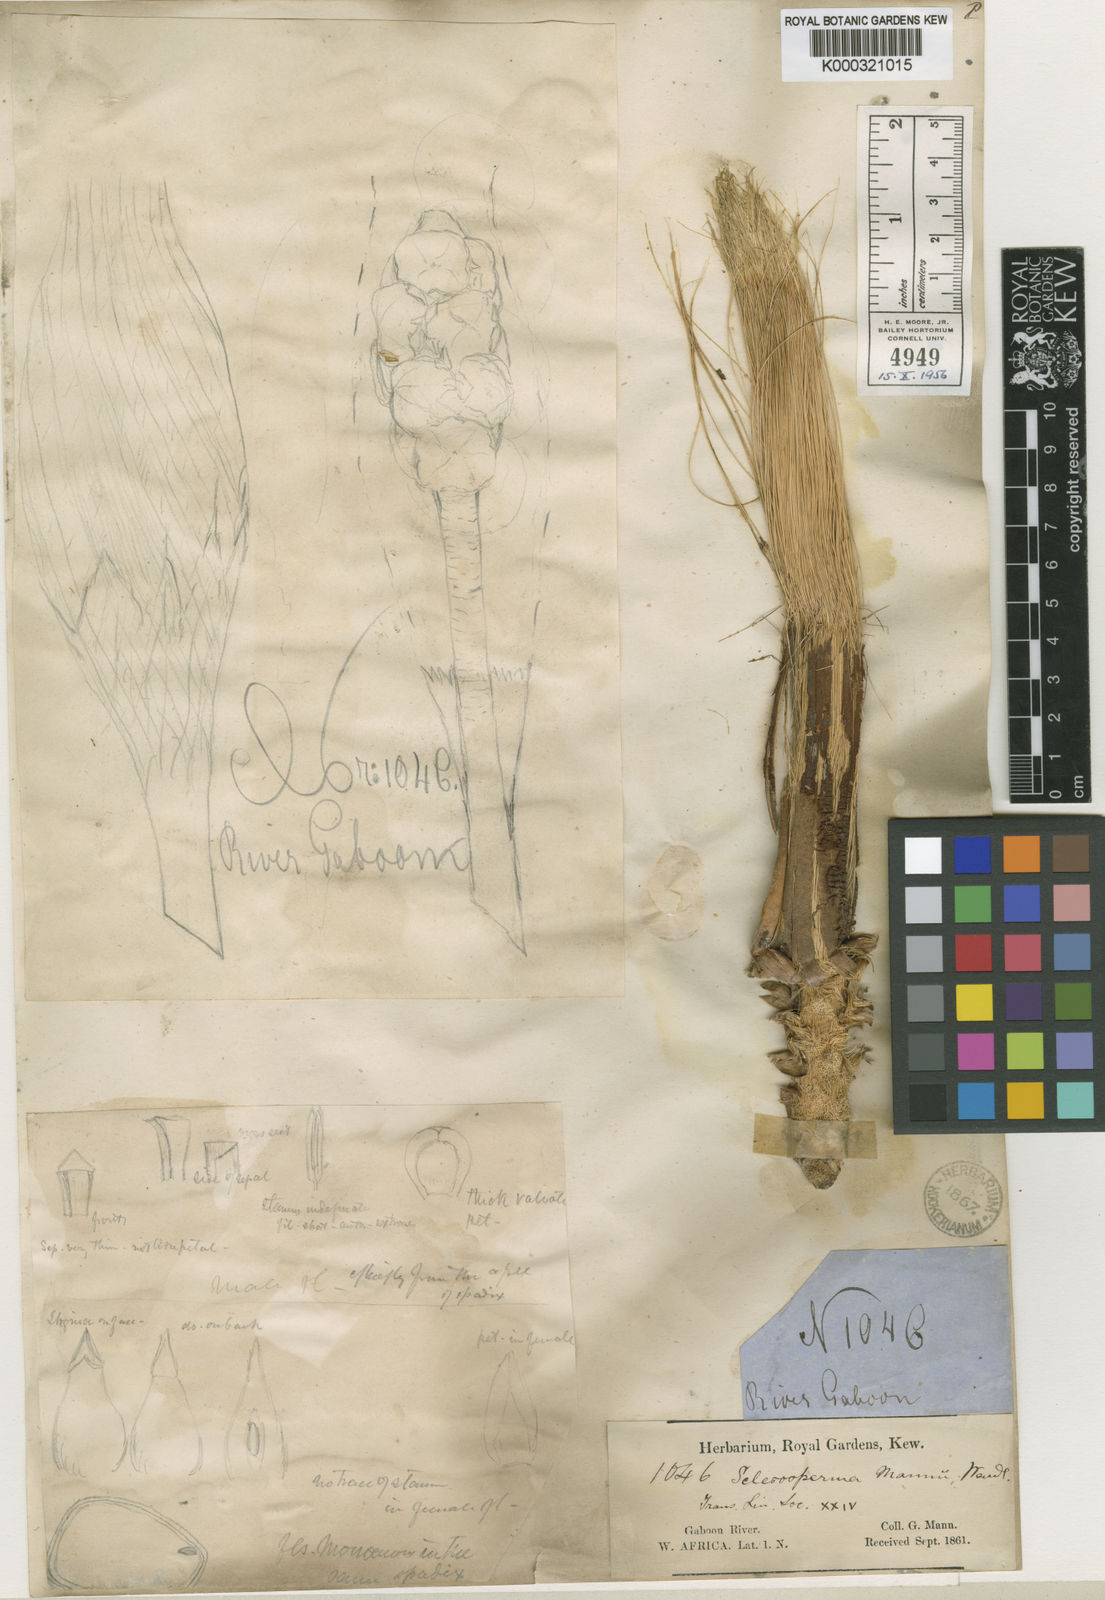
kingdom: Plantae
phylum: Tracheophyta
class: Liliopsida
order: Arecales
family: Arecaceae
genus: Sclerosperma
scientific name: Sclerosperma mannii
